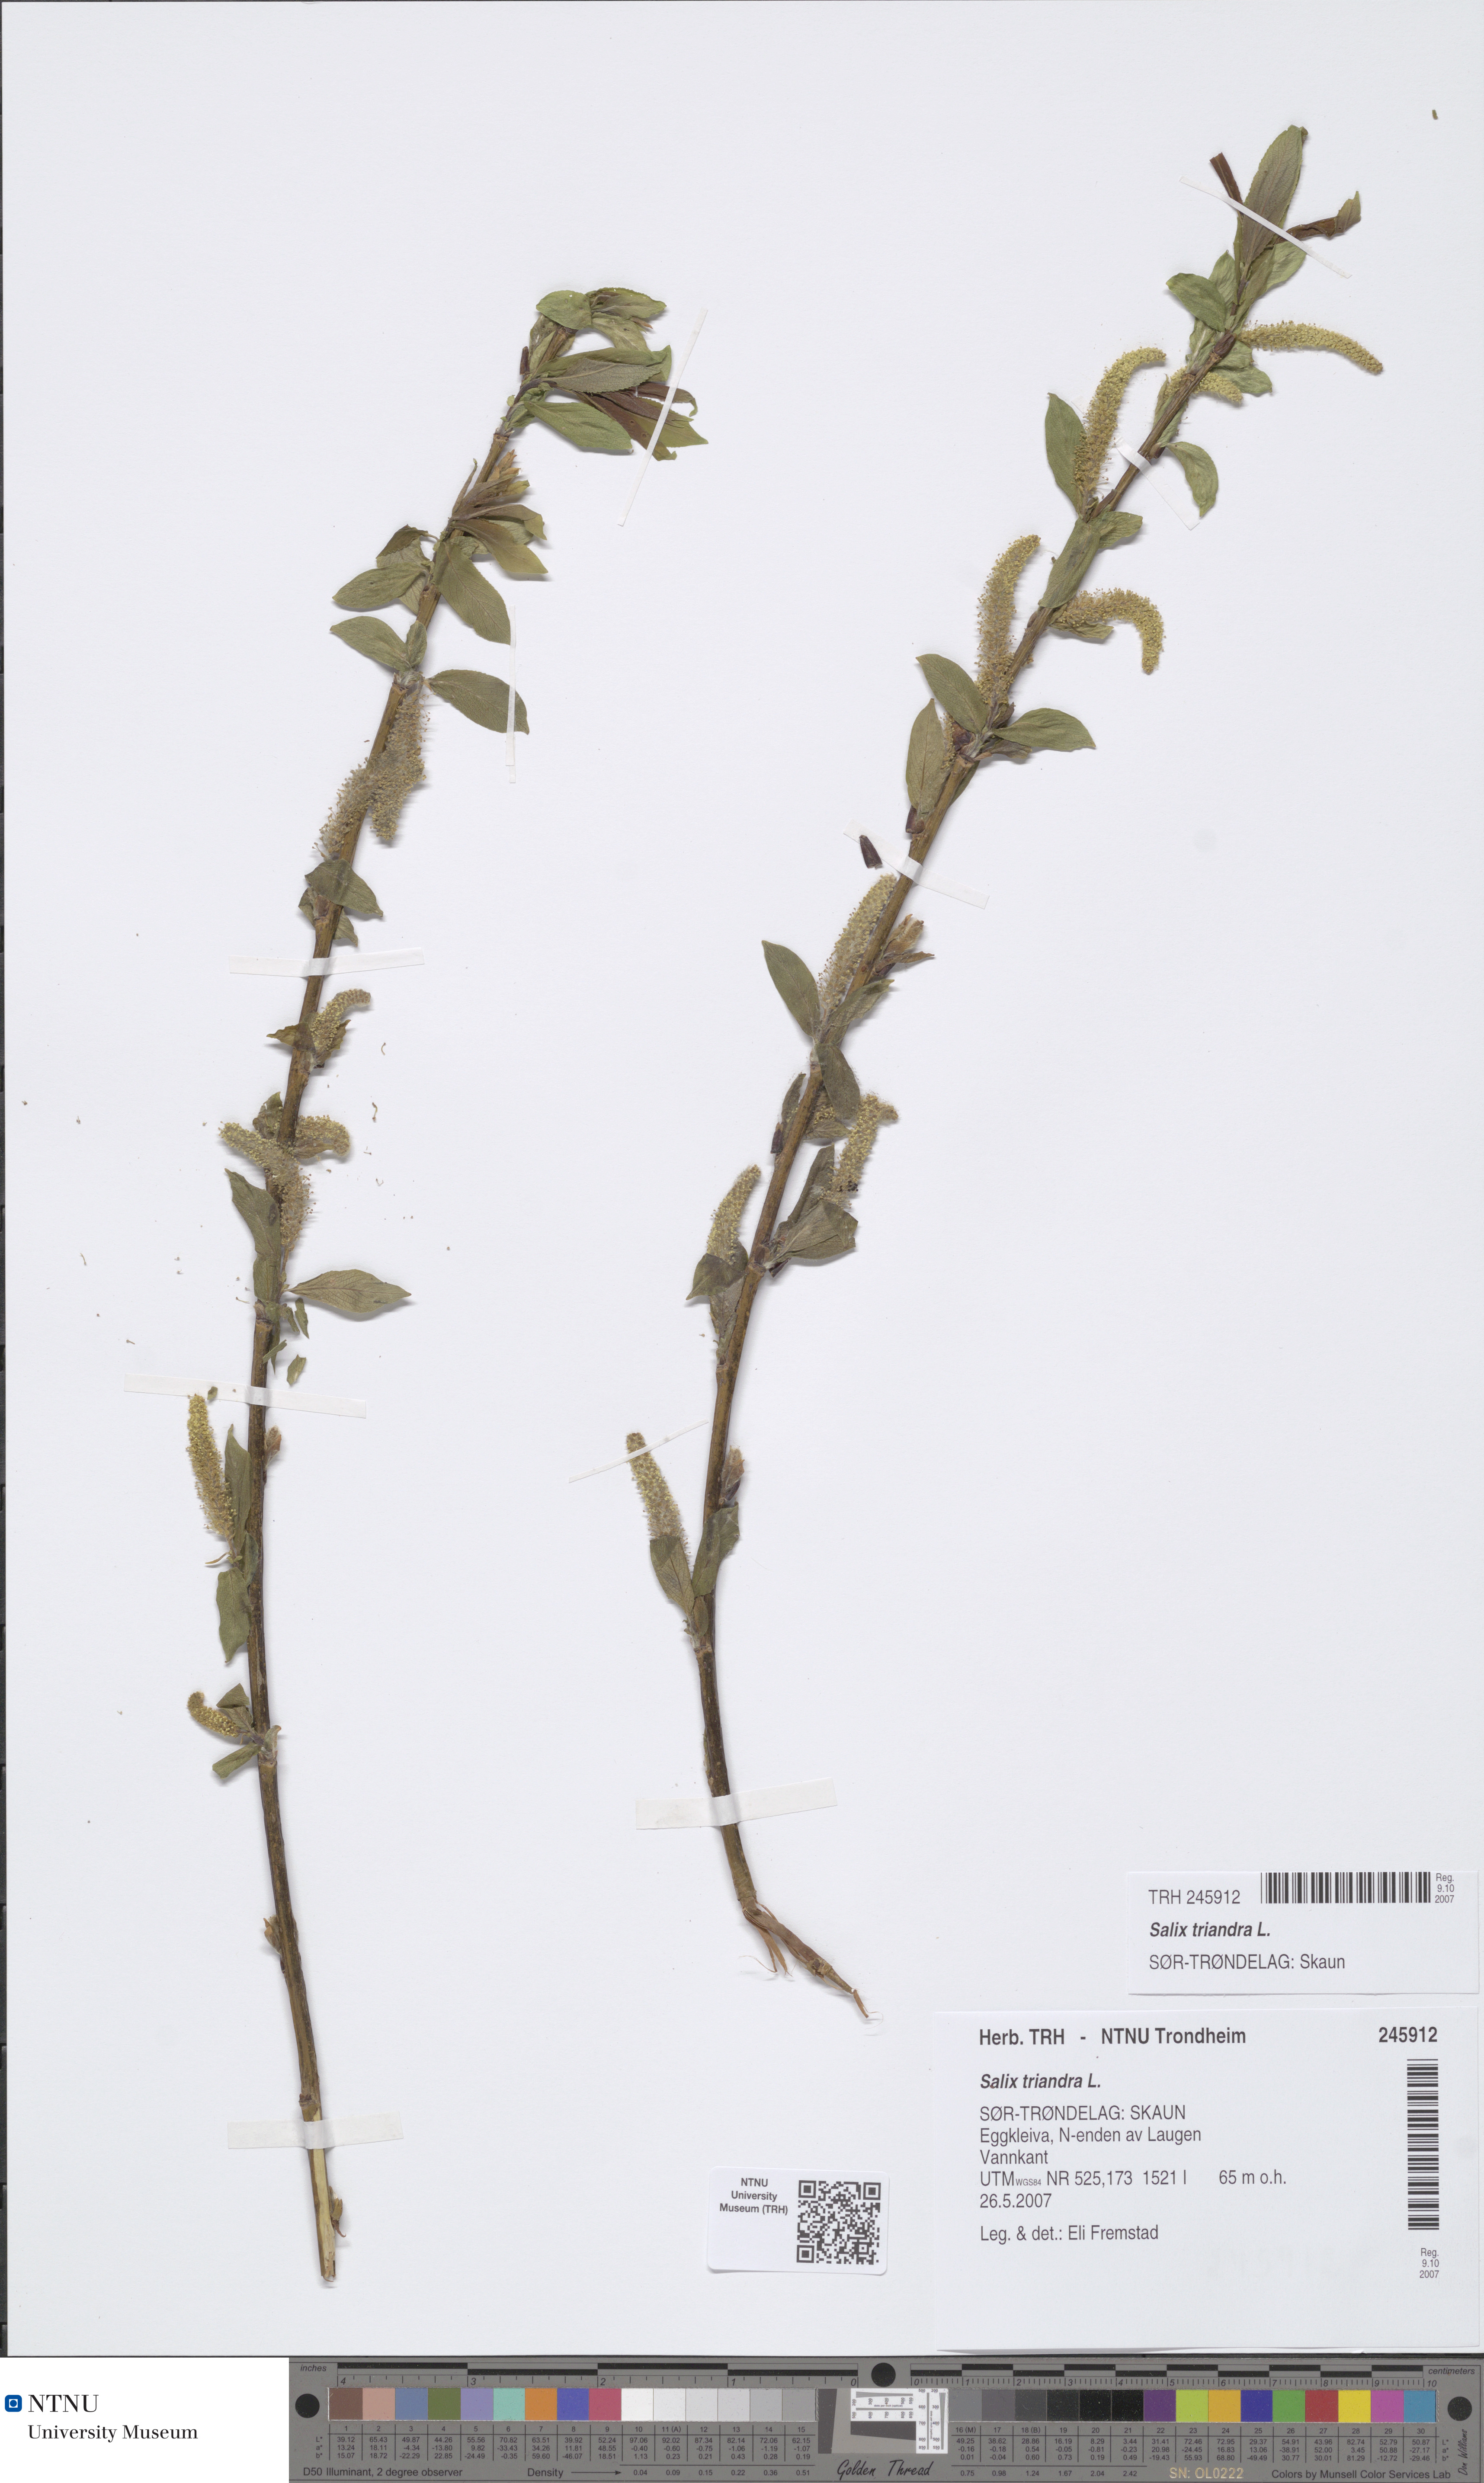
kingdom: Plantae
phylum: Tracheophyta
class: Magnoliopsida
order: Malpighiales
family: Salicaceae
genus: Salix
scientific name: Salix triandra
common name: Almond willow
